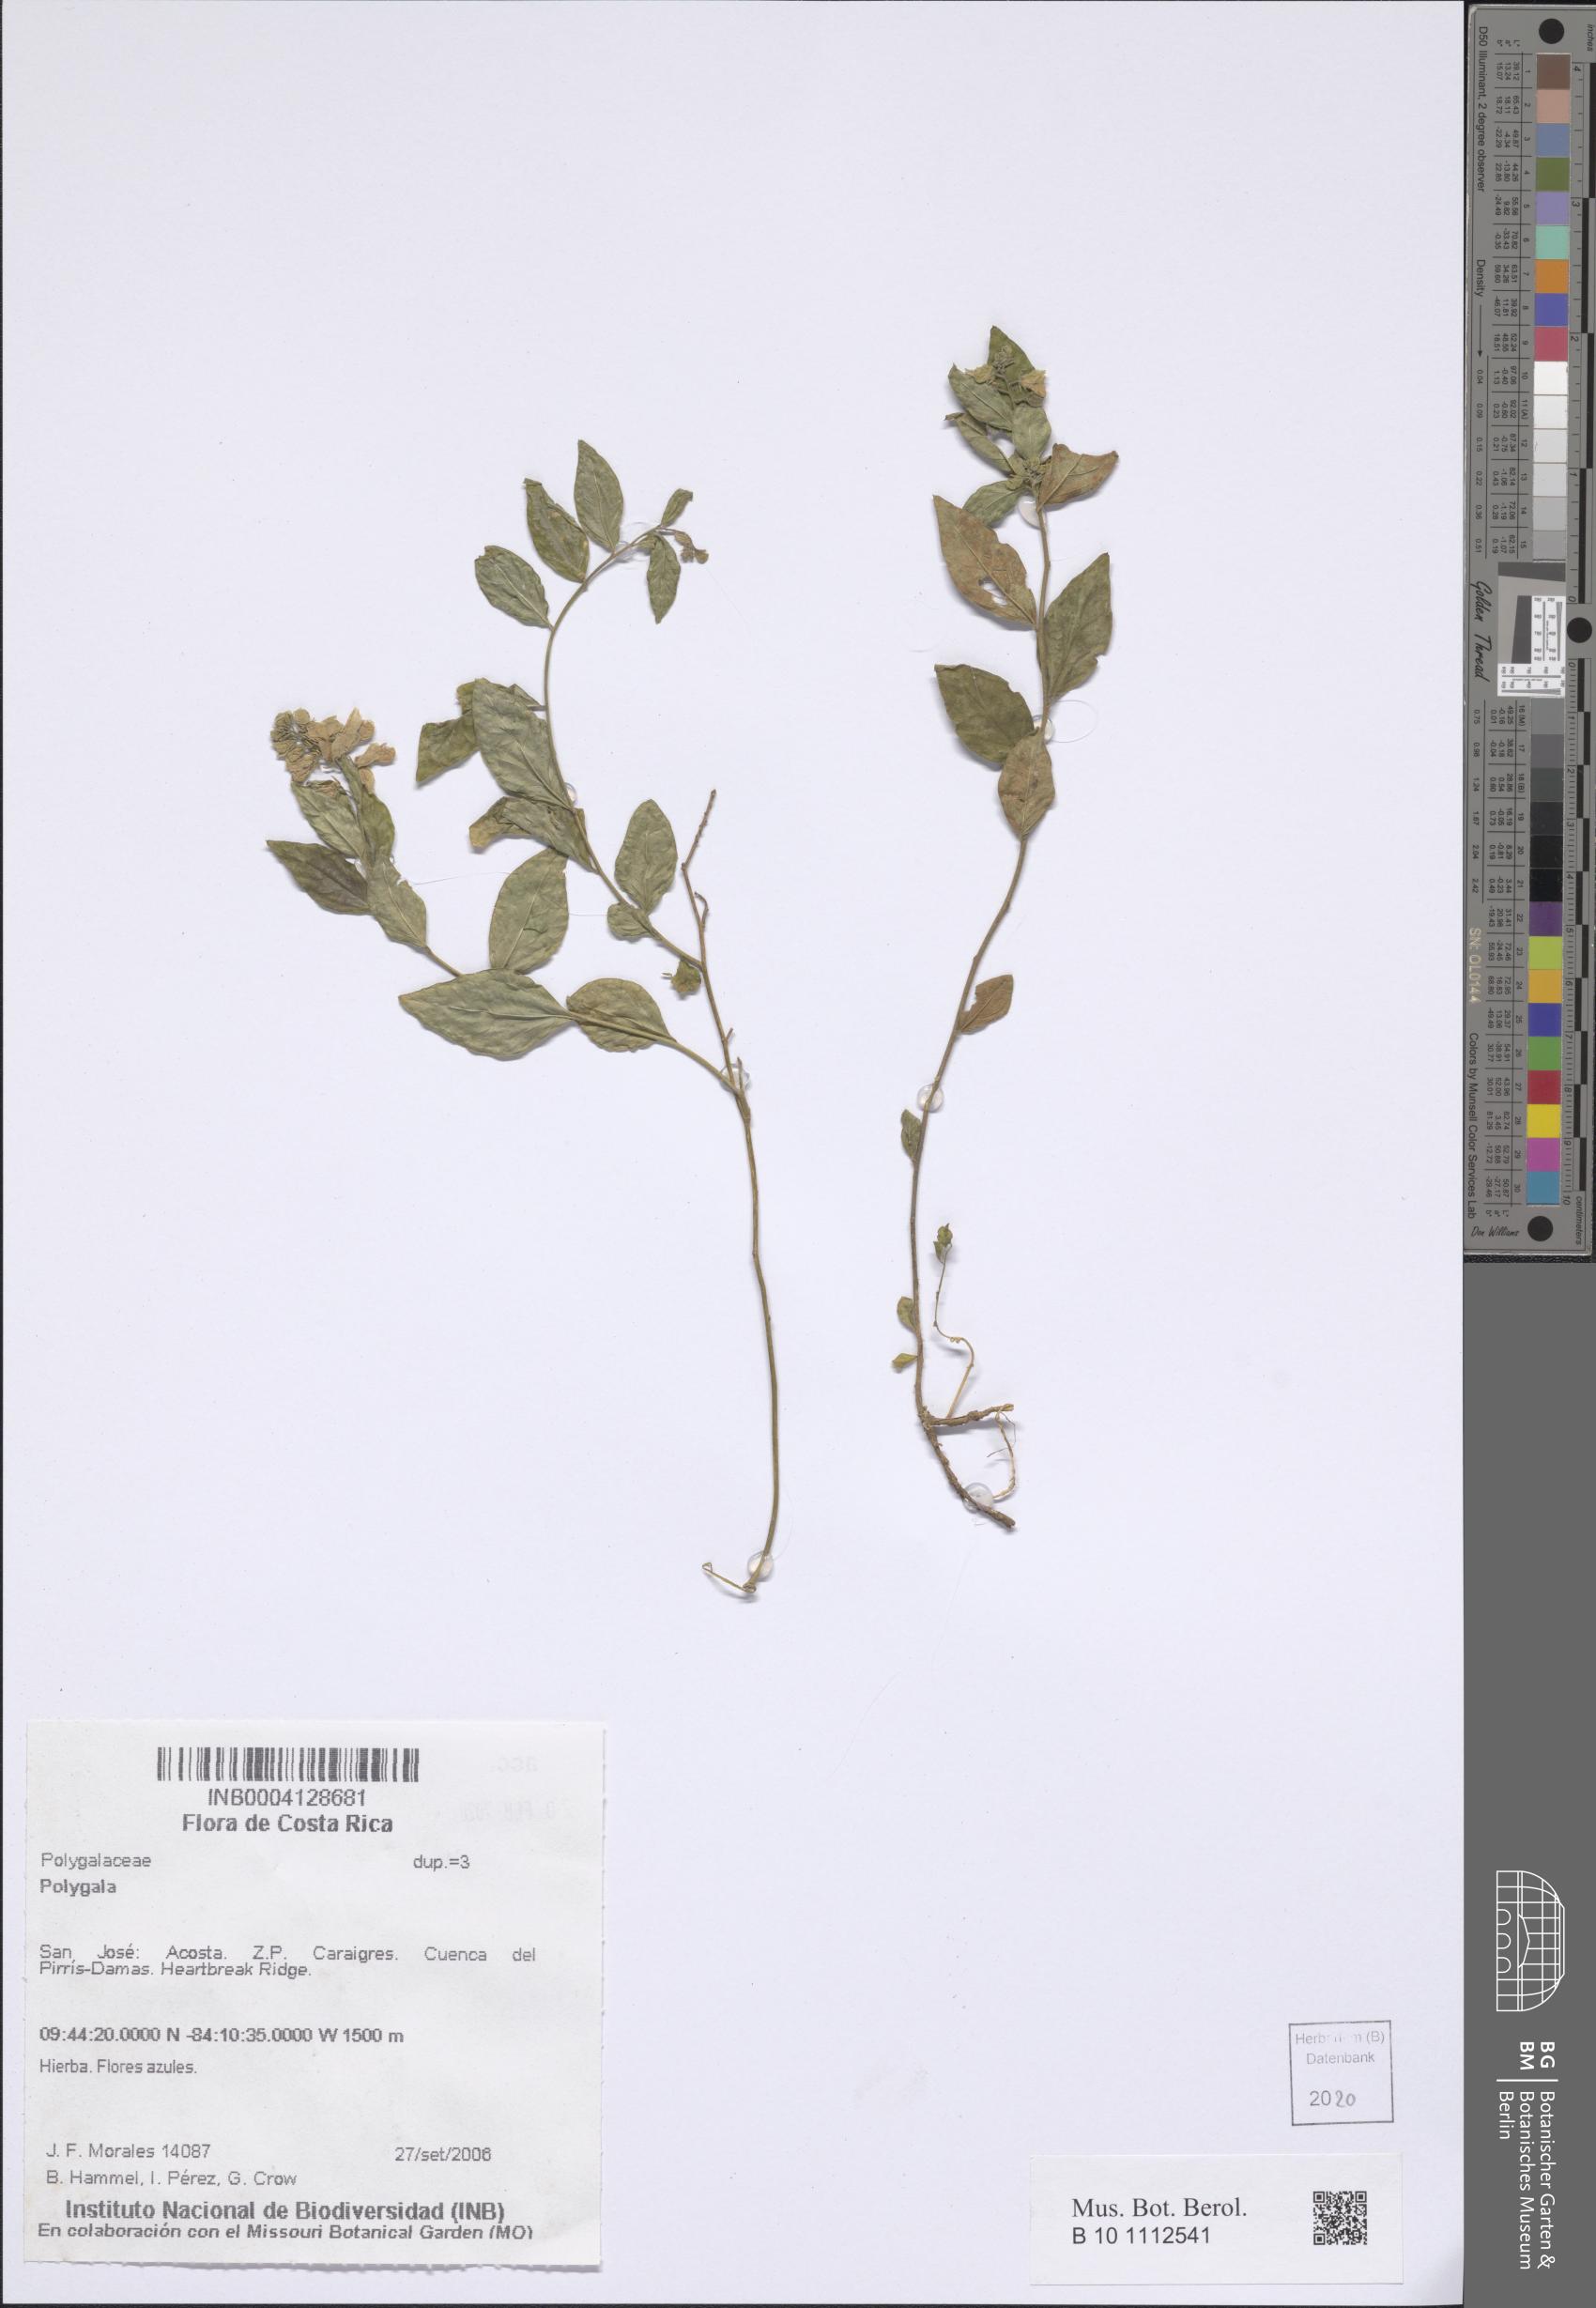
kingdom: Plantae
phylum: Tracheophyta
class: Magnoliopsida
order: Fabales
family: Polygalaceae
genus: Polygala
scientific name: Polygala
